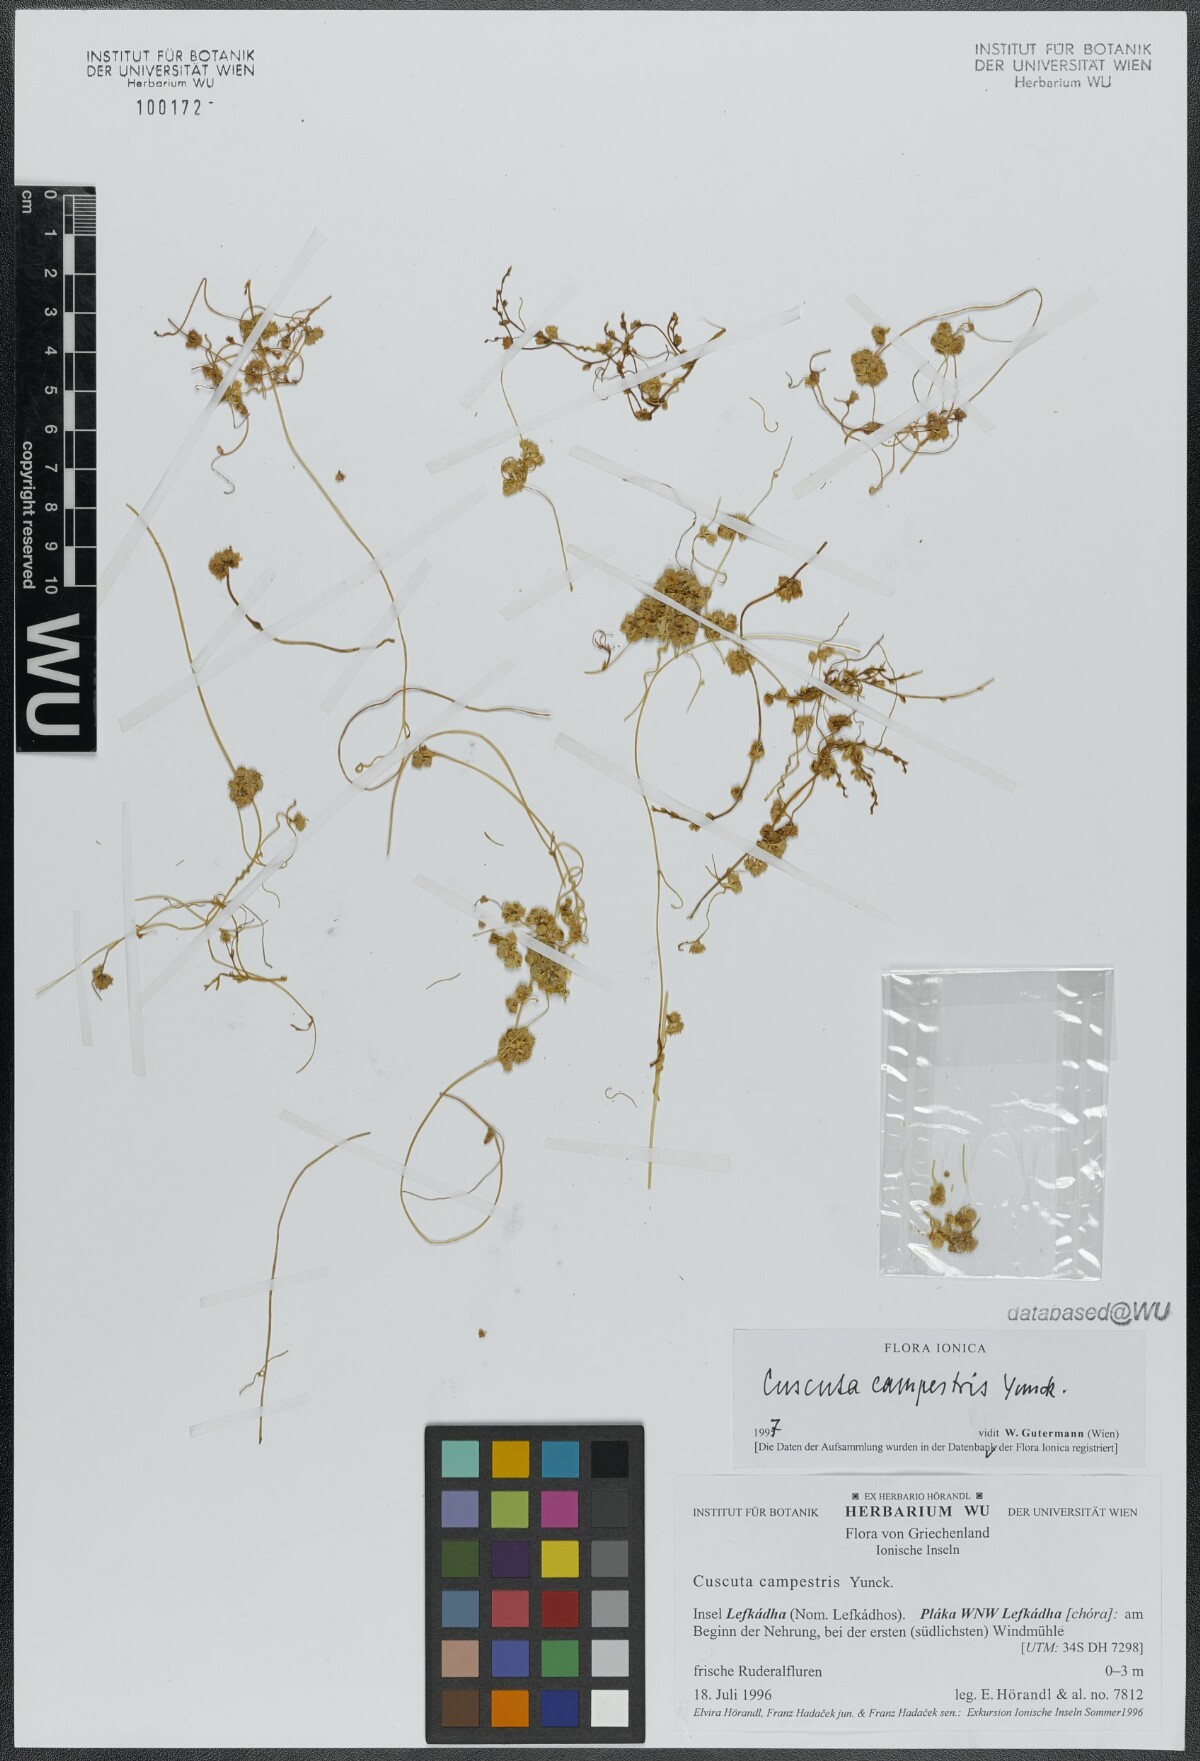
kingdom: Plantae
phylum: Tracheophyta
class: Magnoliopsida
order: Solanales
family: Convolvulaceae
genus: Cuscuta
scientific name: Cuscuta campestris
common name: Yellow dodder
